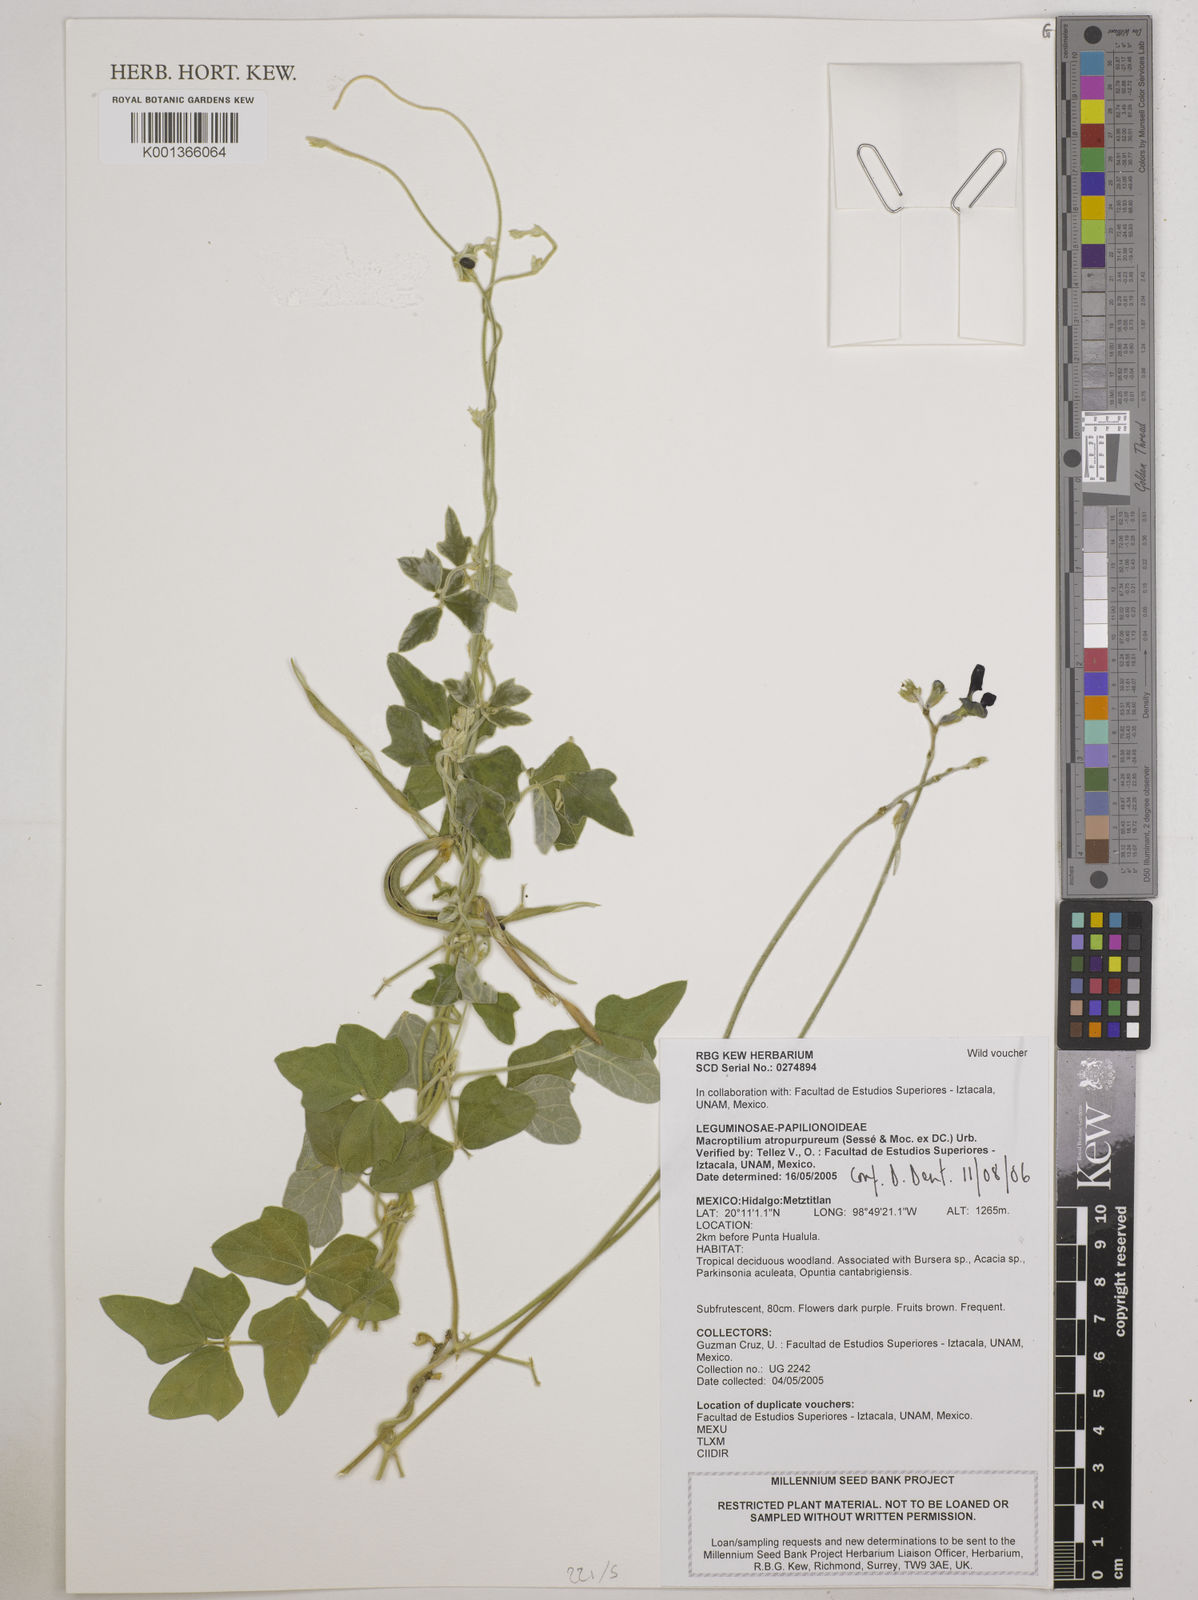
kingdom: Plantae
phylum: Tracheophyta
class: Magnoliopsida
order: Fabales
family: Fabaceae
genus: Macroptilium
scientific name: Macroptilium atropurpureum
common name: Purple bushbean
